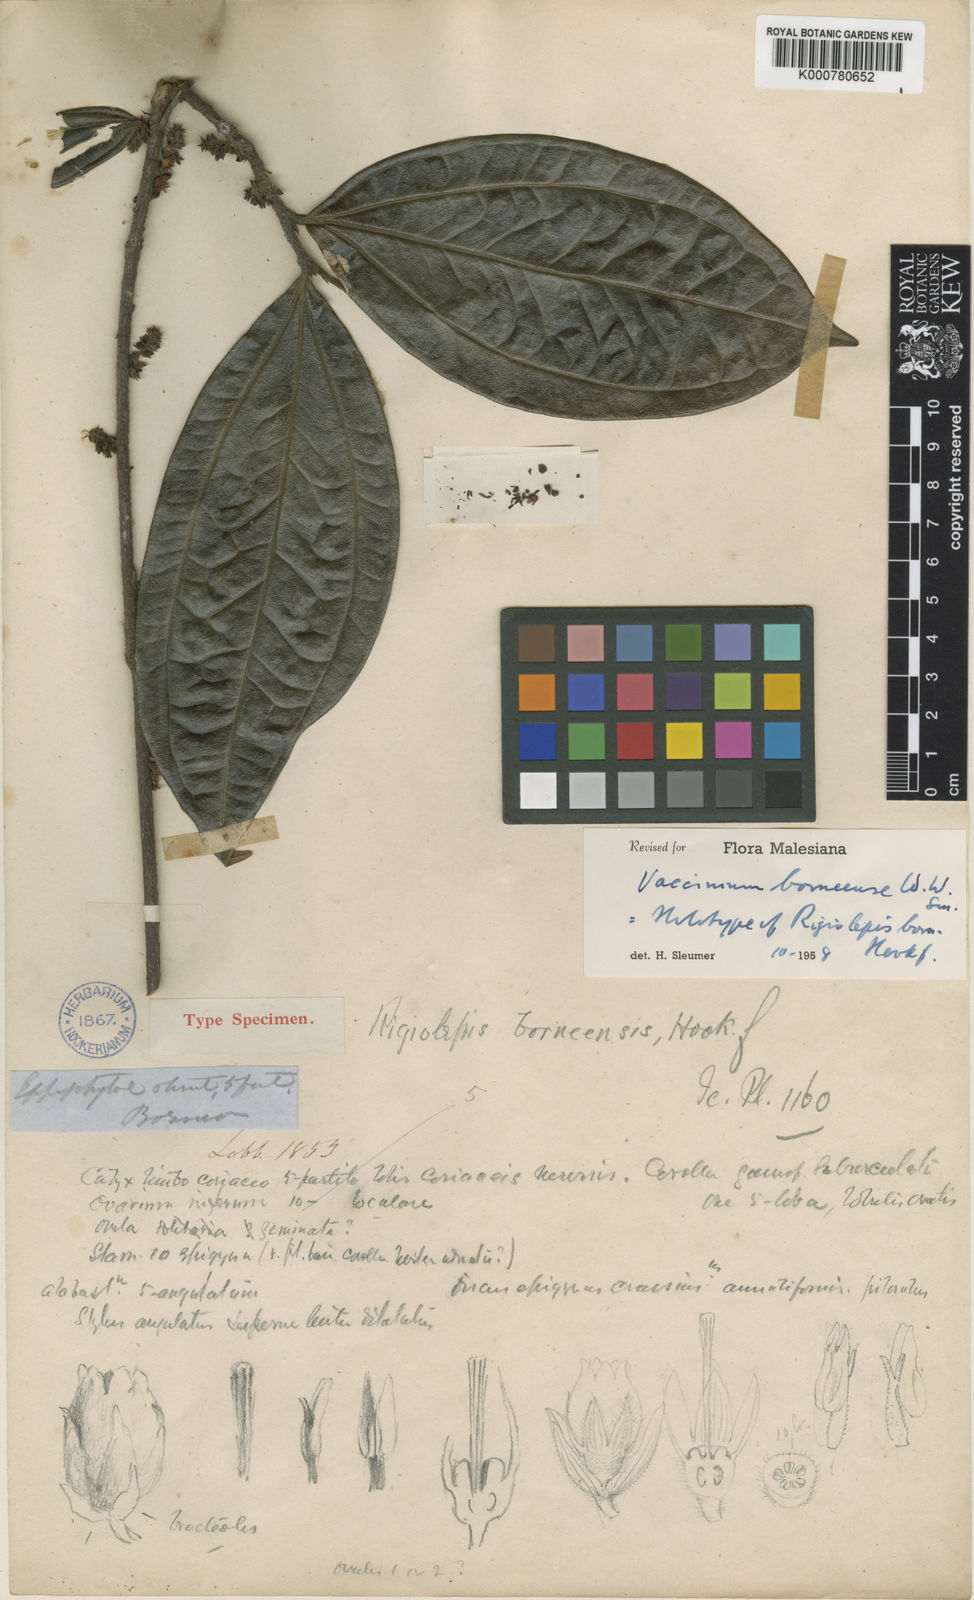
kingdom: Plantae
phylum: Tracheophyta
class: Magnoliopsida
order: Ericales
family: Ericaceae
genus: Rigiolepis
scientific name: Rigiolepis borneensis
